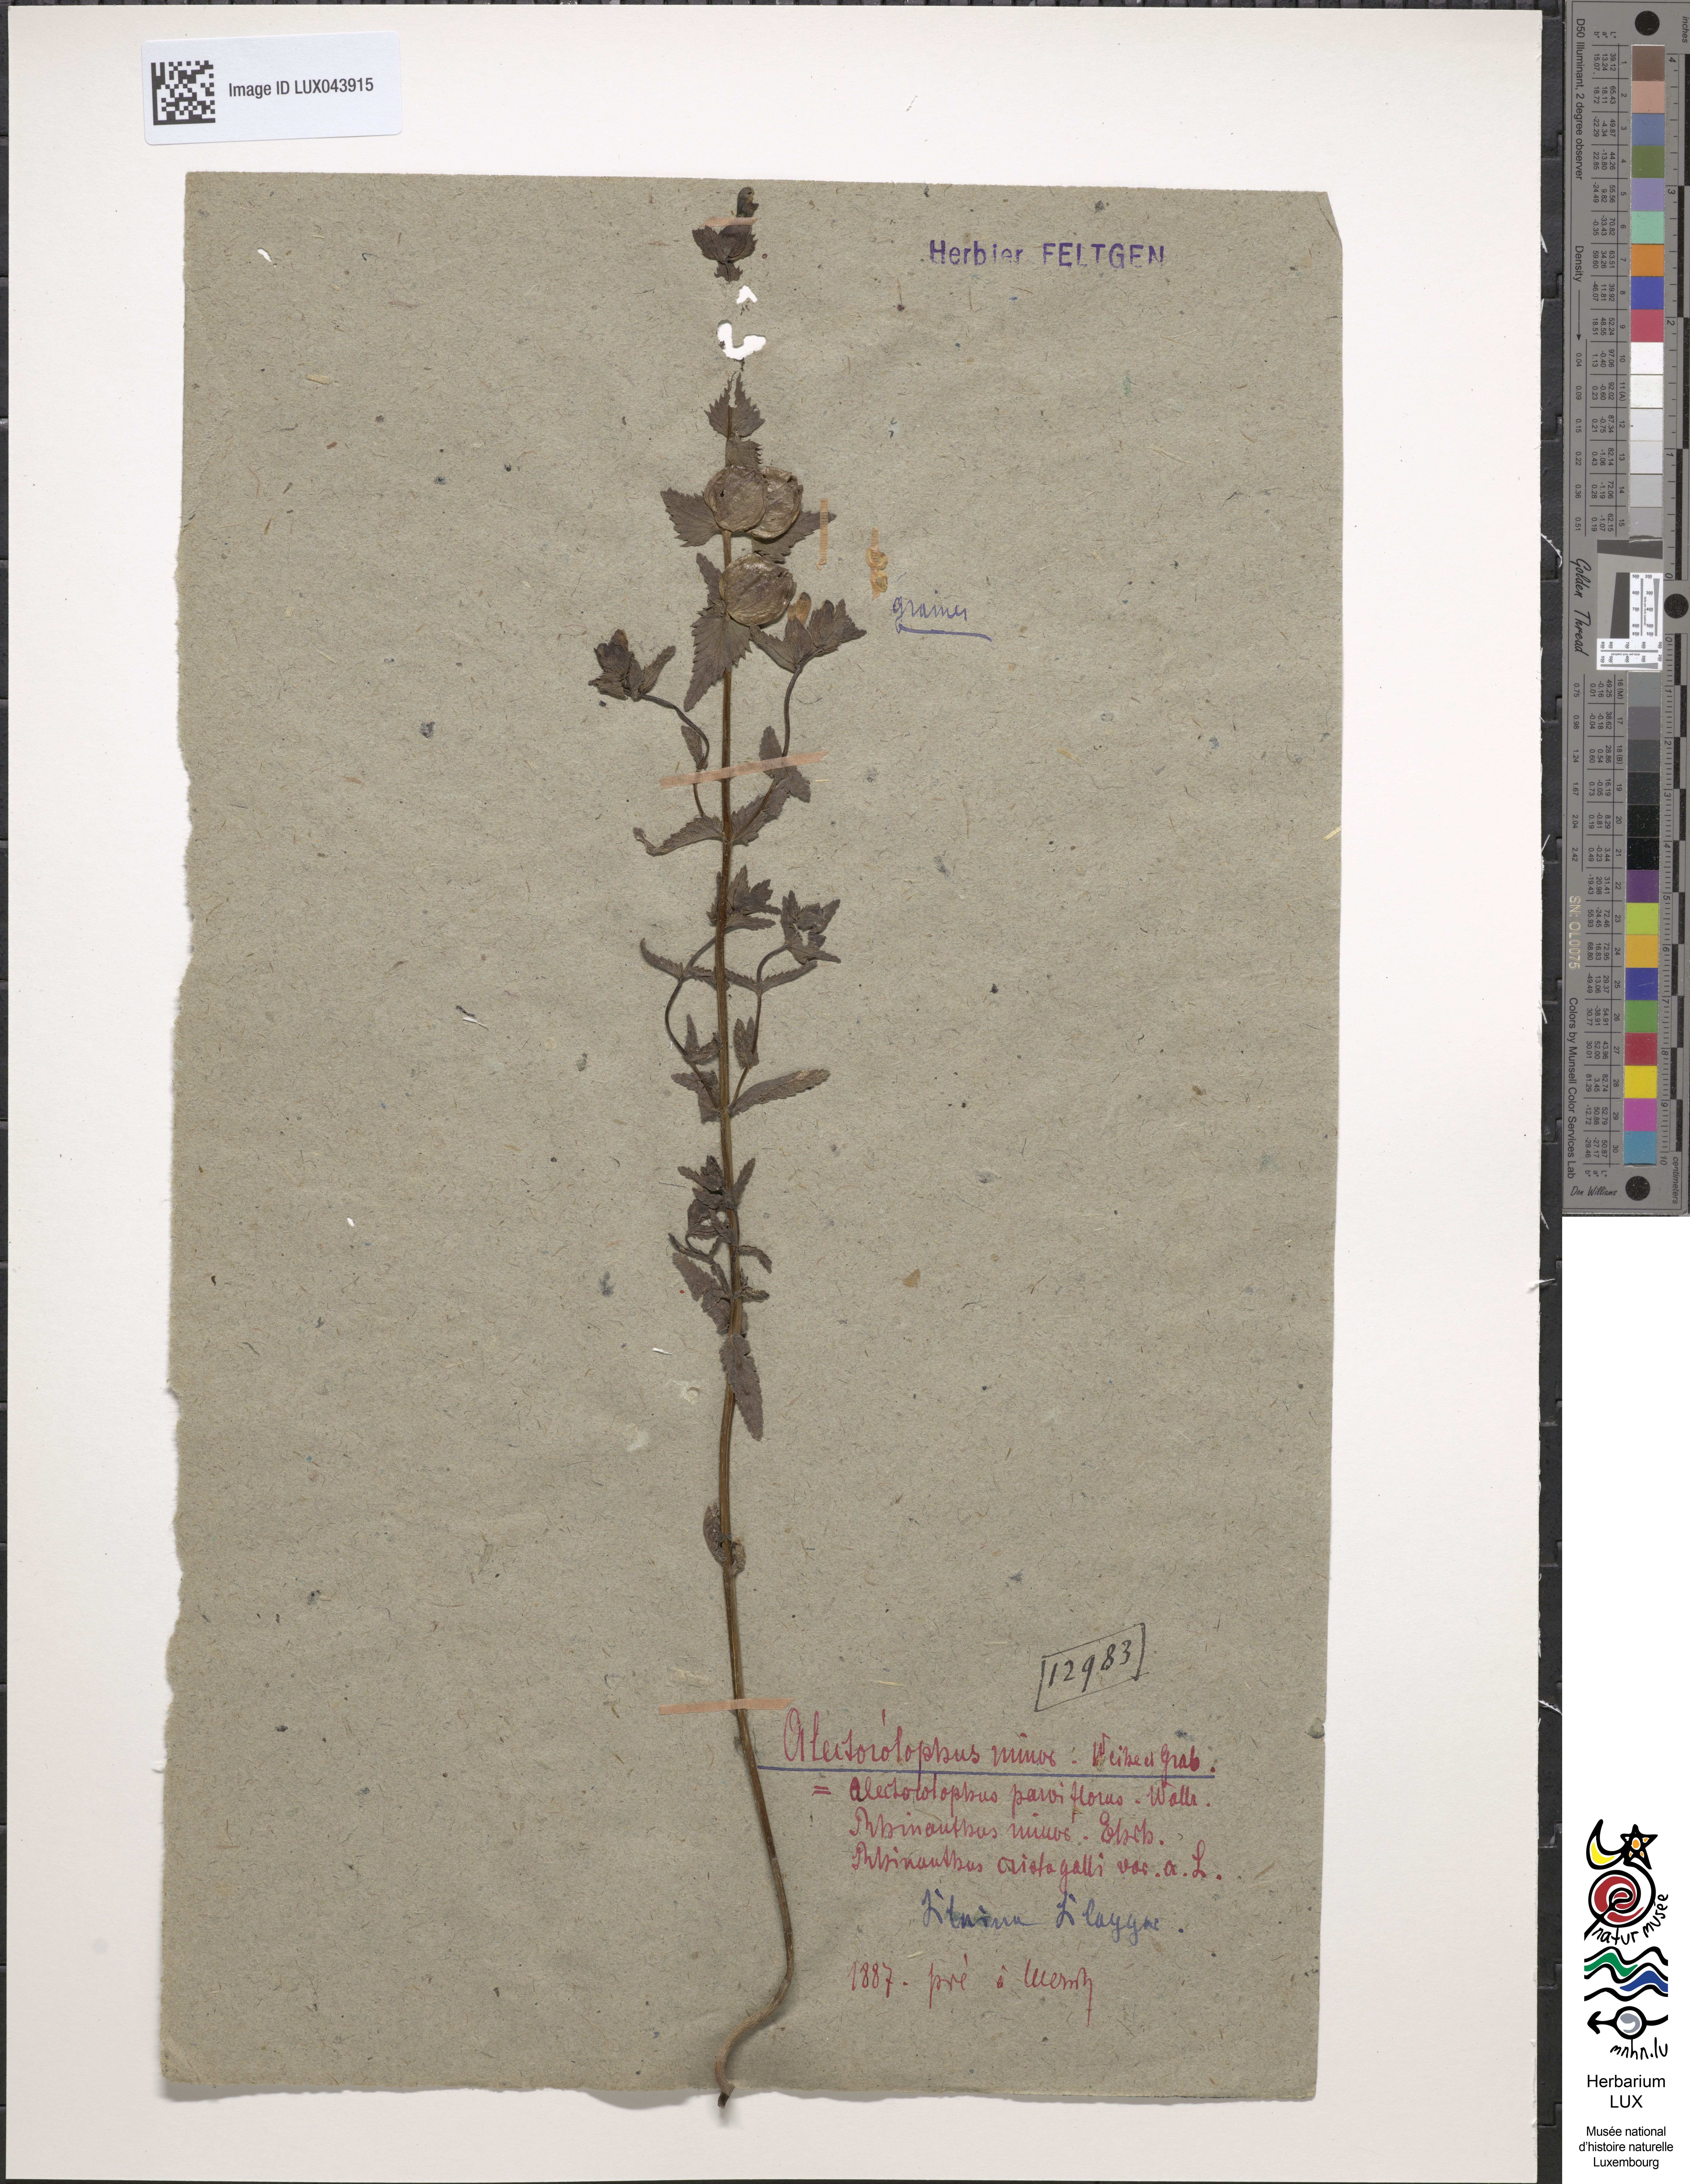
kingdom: Plantae
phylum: Tracheophyta
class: Magnoliopsida
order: Lamiales
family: Orobanchaceae
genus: Rhinanthus
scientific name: Rhinanthus minor
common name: Yellow-rattle
